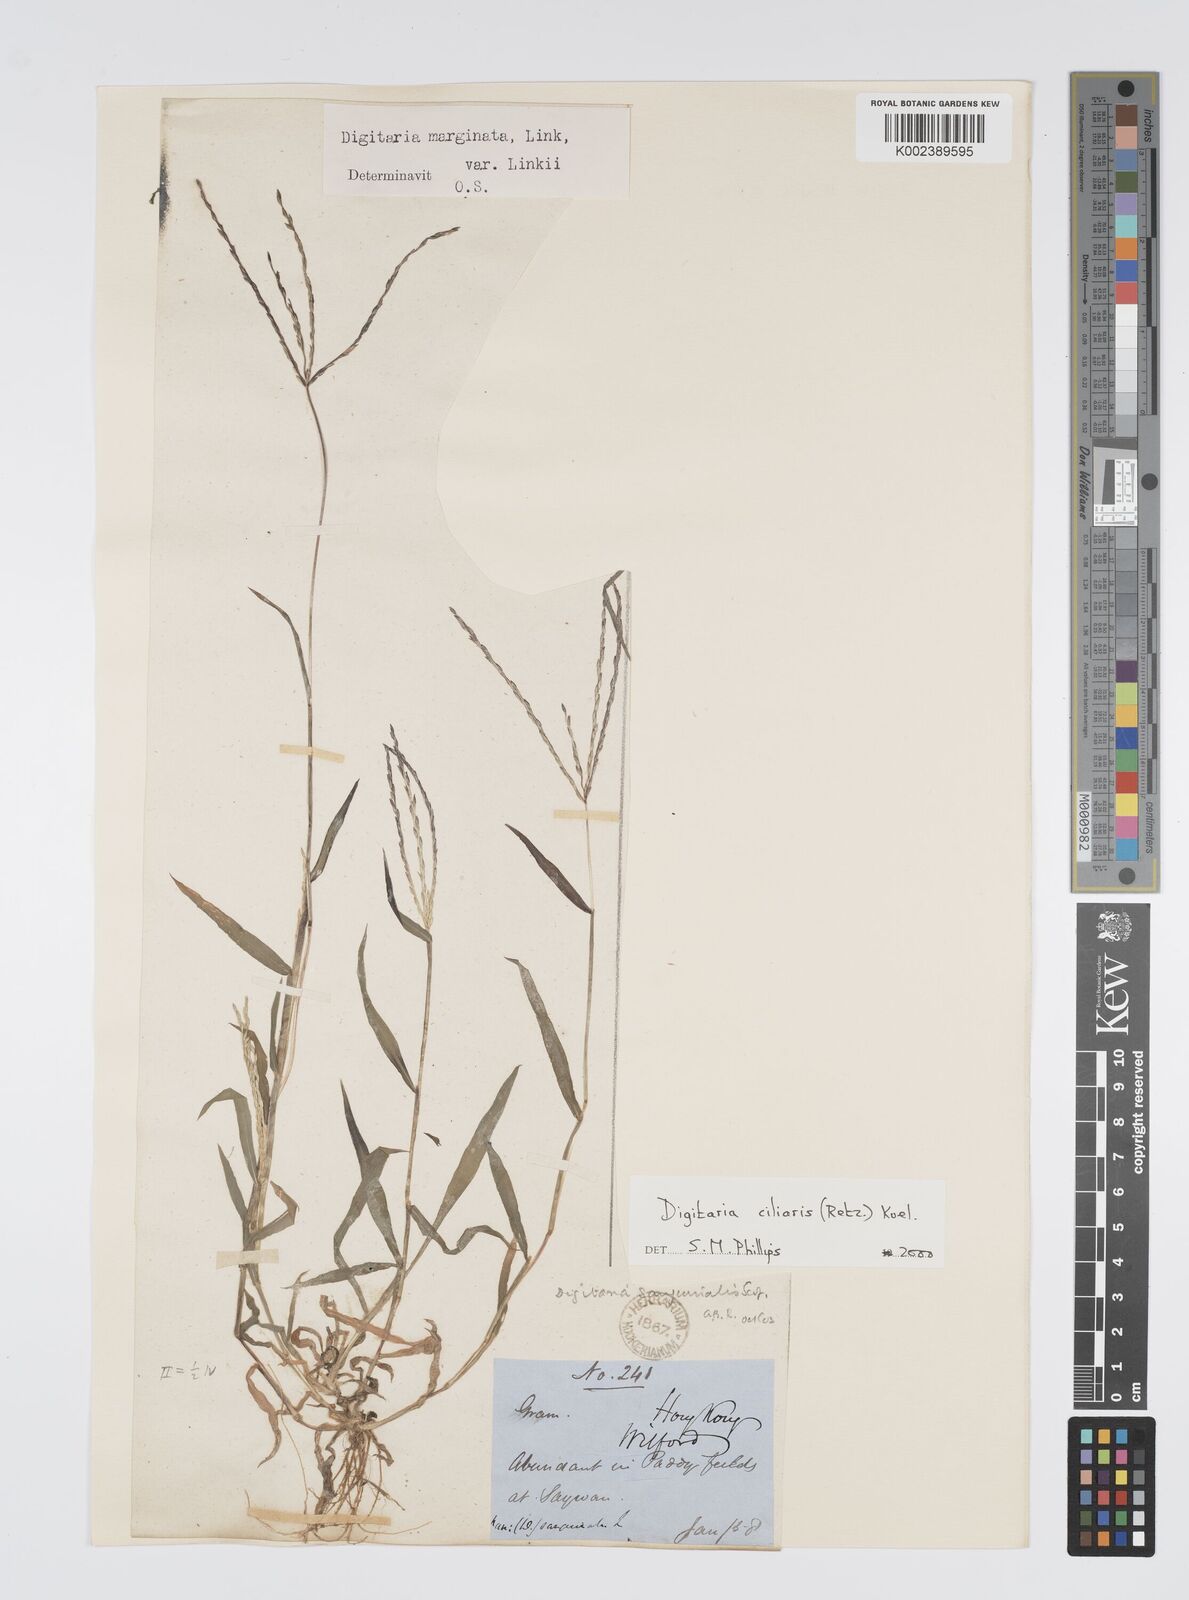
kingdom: Plantae
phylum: Tracheophyta
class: Liliopsida
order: Poales
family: Poaceae
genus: Digitaria
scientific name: Digitaria ciliaris
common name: Tropical finger-grass
